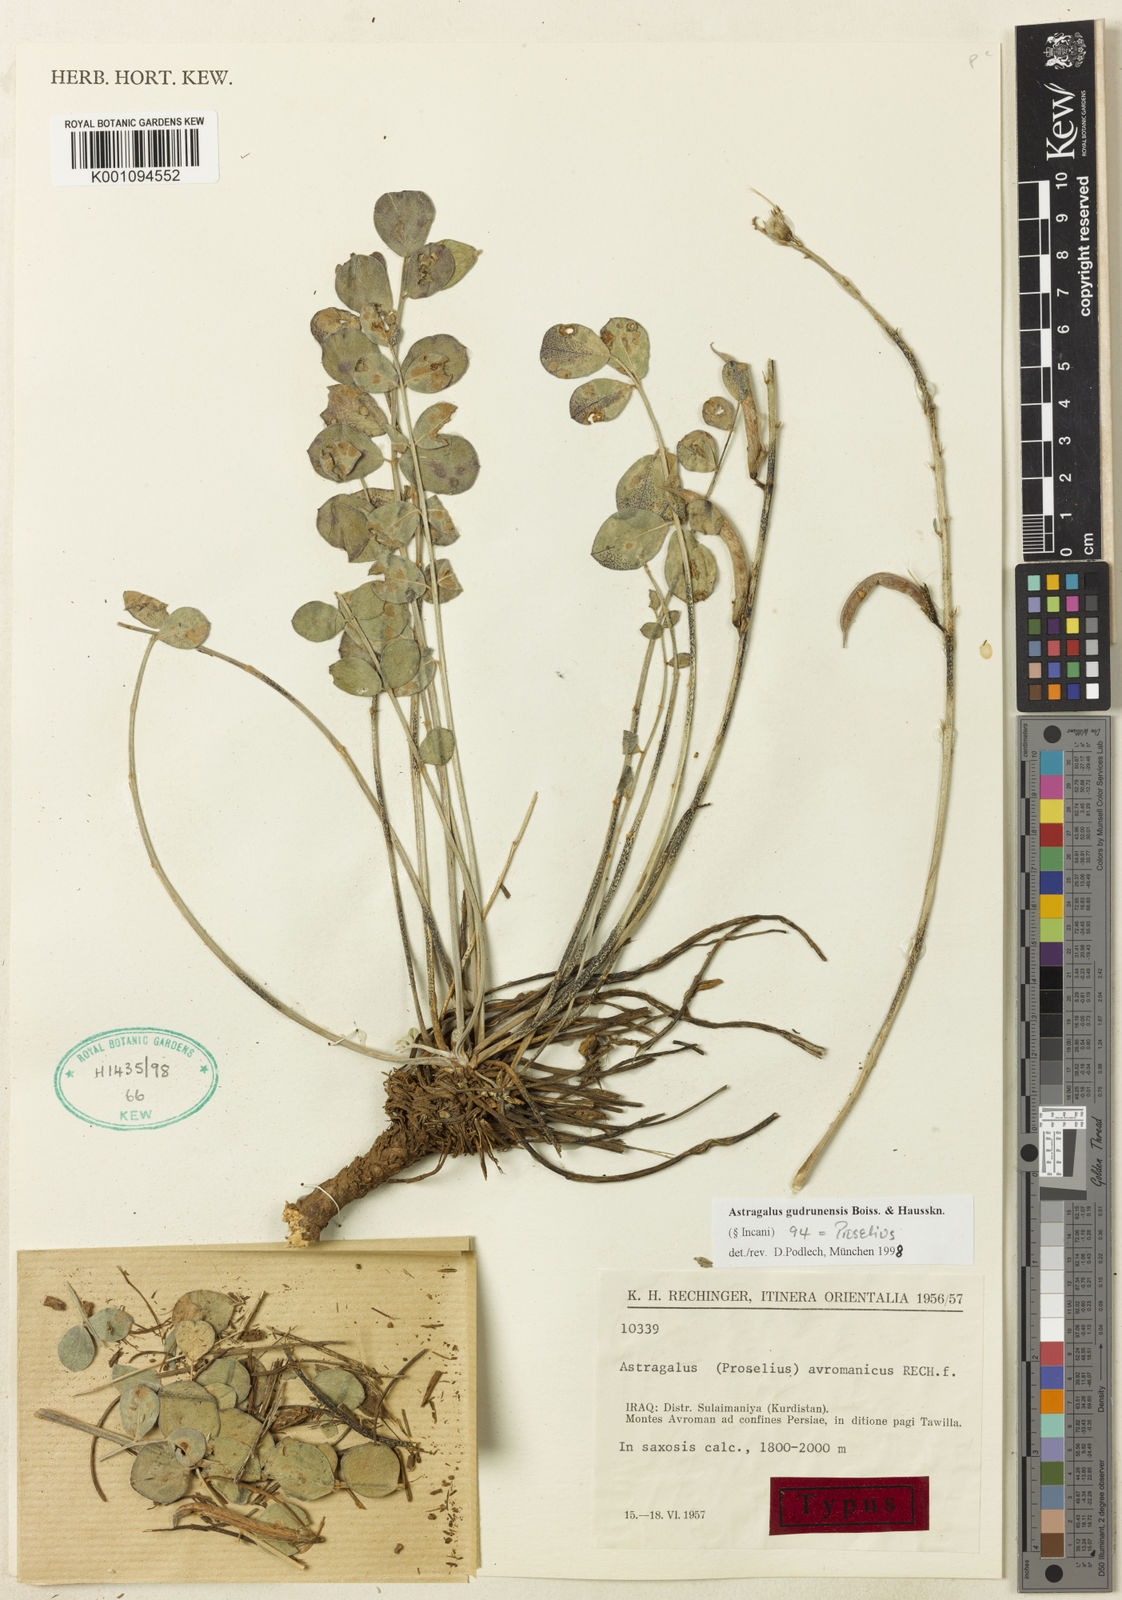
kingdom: Plantae
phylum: Tracheophyta
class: Magnoliopsida
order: Fabales
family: Fabaceae
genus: Astragalus
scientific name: Astragalus
